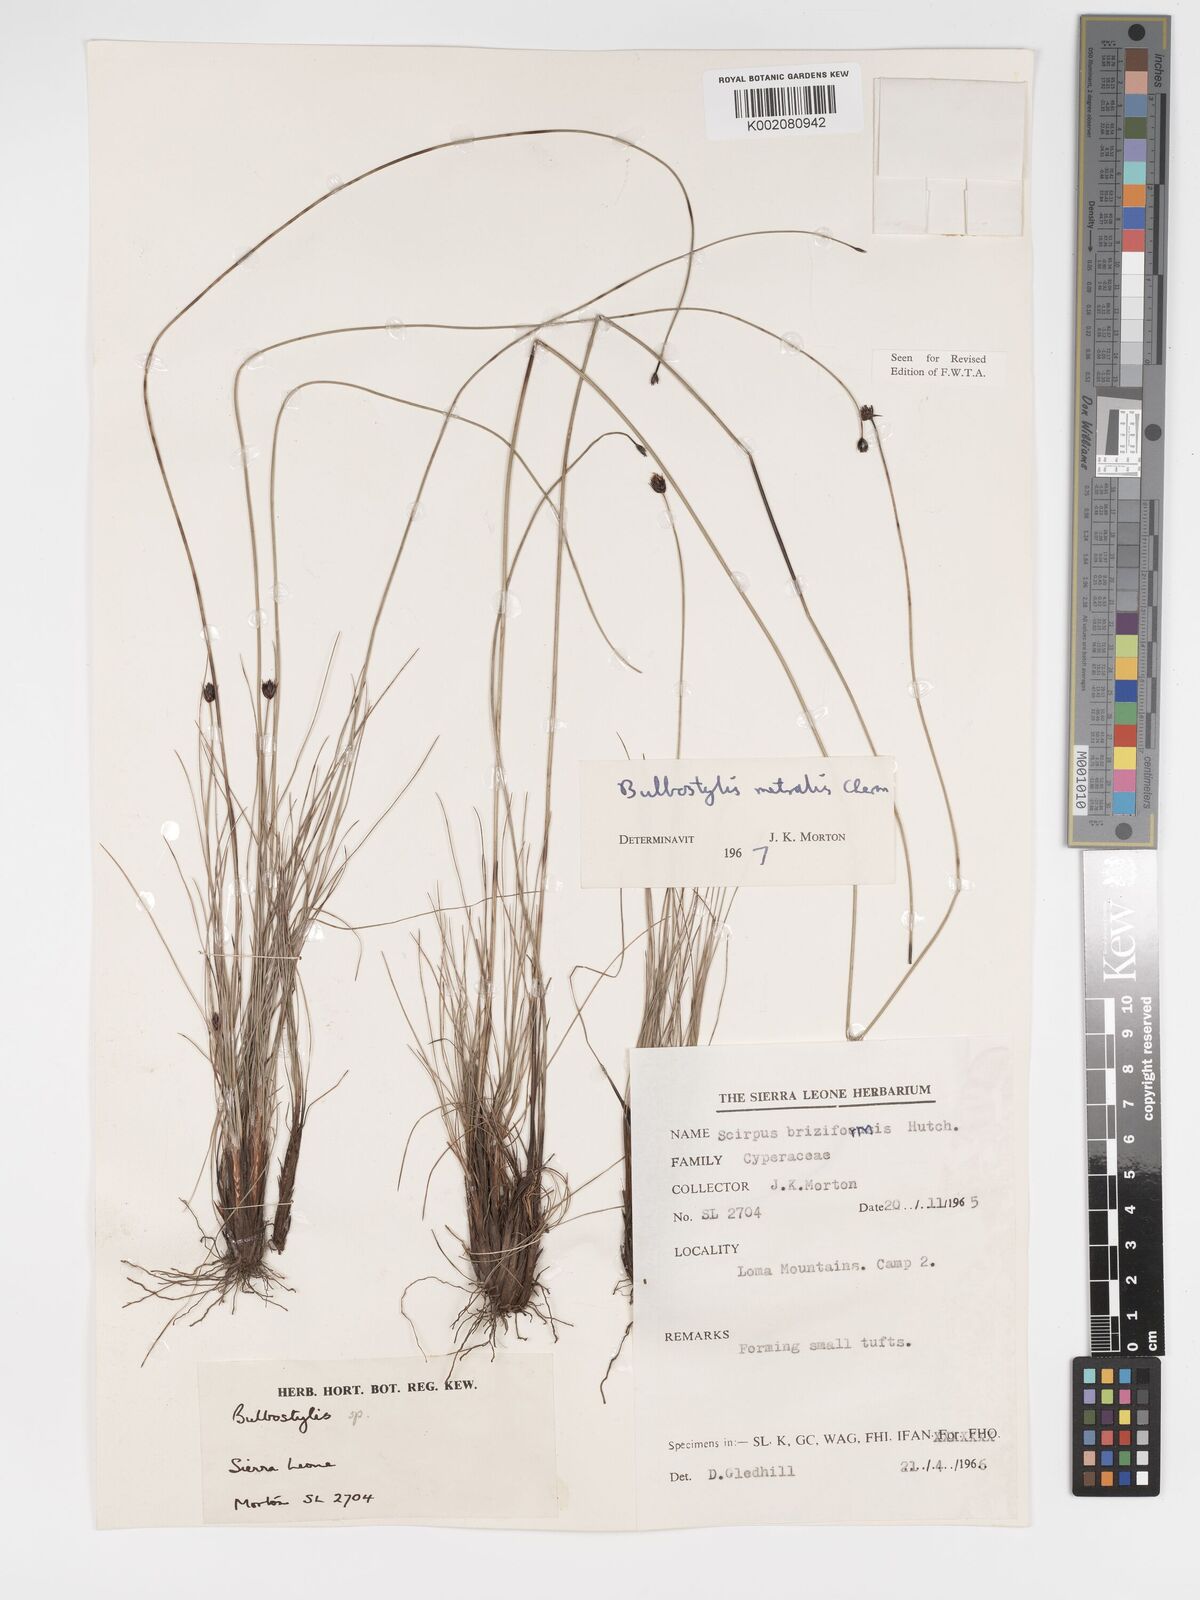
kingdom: Plantae
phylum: Tracheophyta
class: Liliopsida
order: Poales
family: Cyperaceae
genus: Bulbostylis
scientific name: Bulbostylis filamentosa
